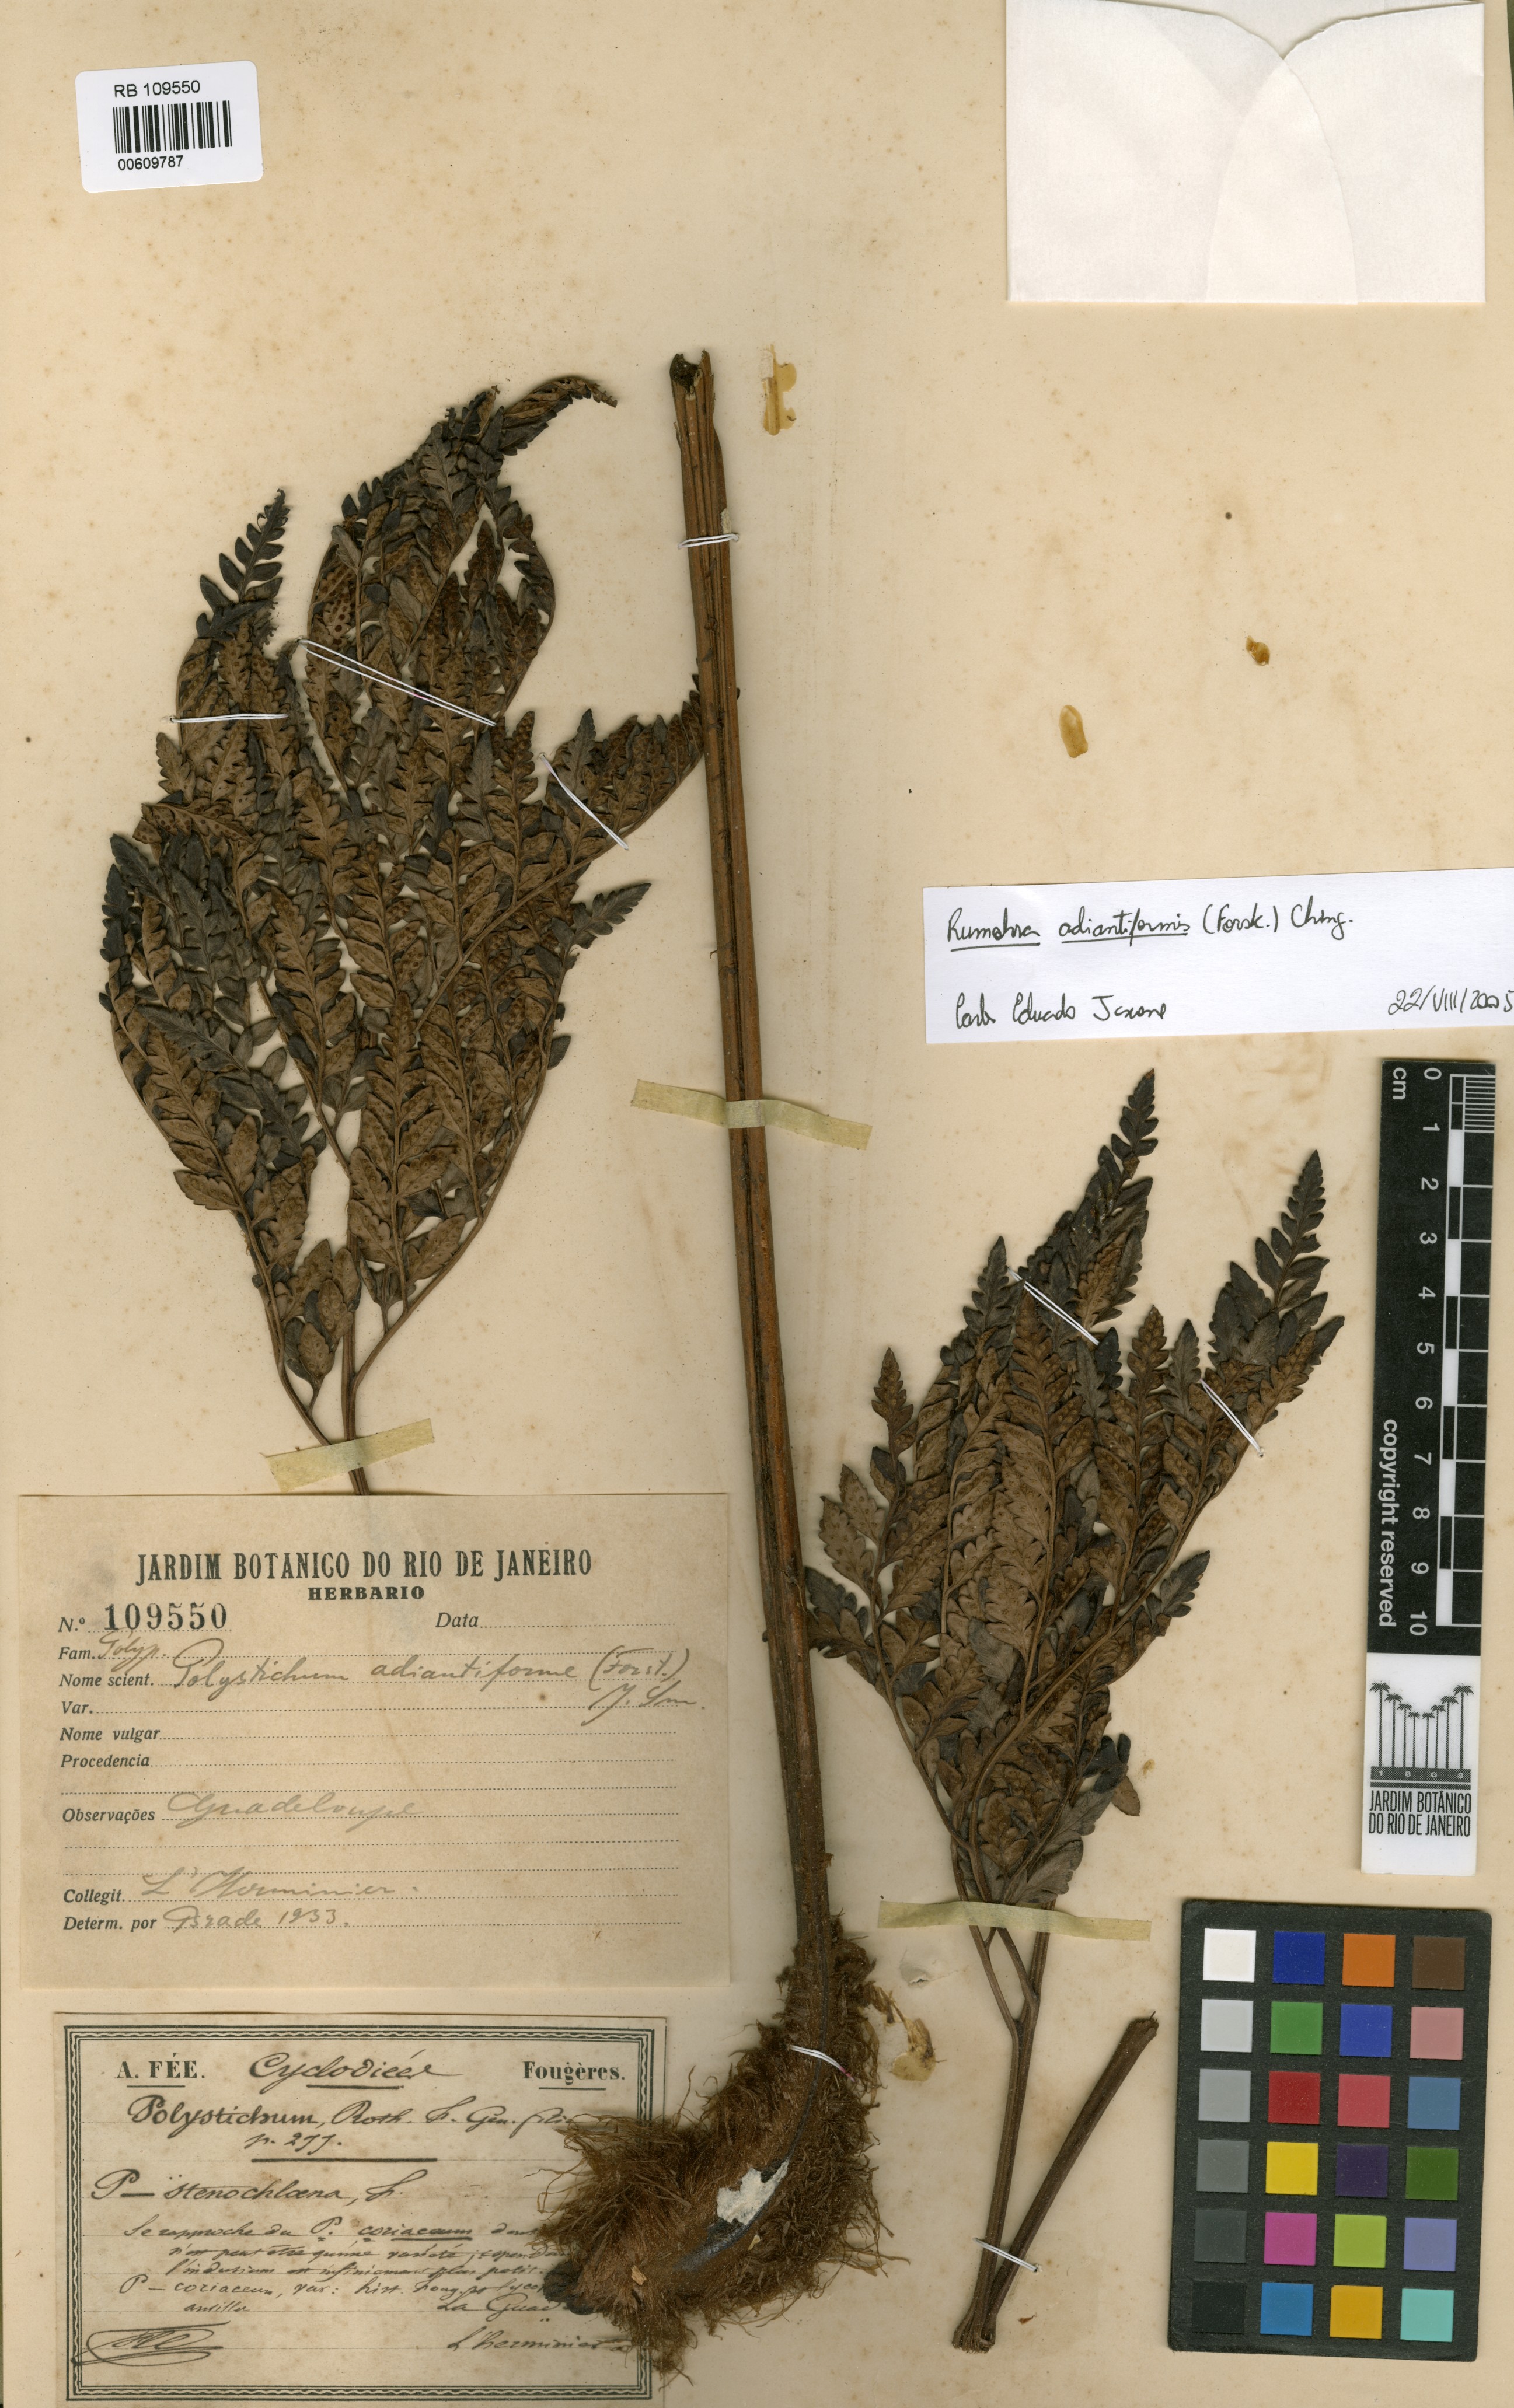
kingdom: Plantae
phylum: Tracheophyta
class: Polypodiopsida
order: Polypodiales
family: Dryopteridaceae
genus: Rumohra
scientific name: Rumohra adiantiformis
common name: Leather fern
